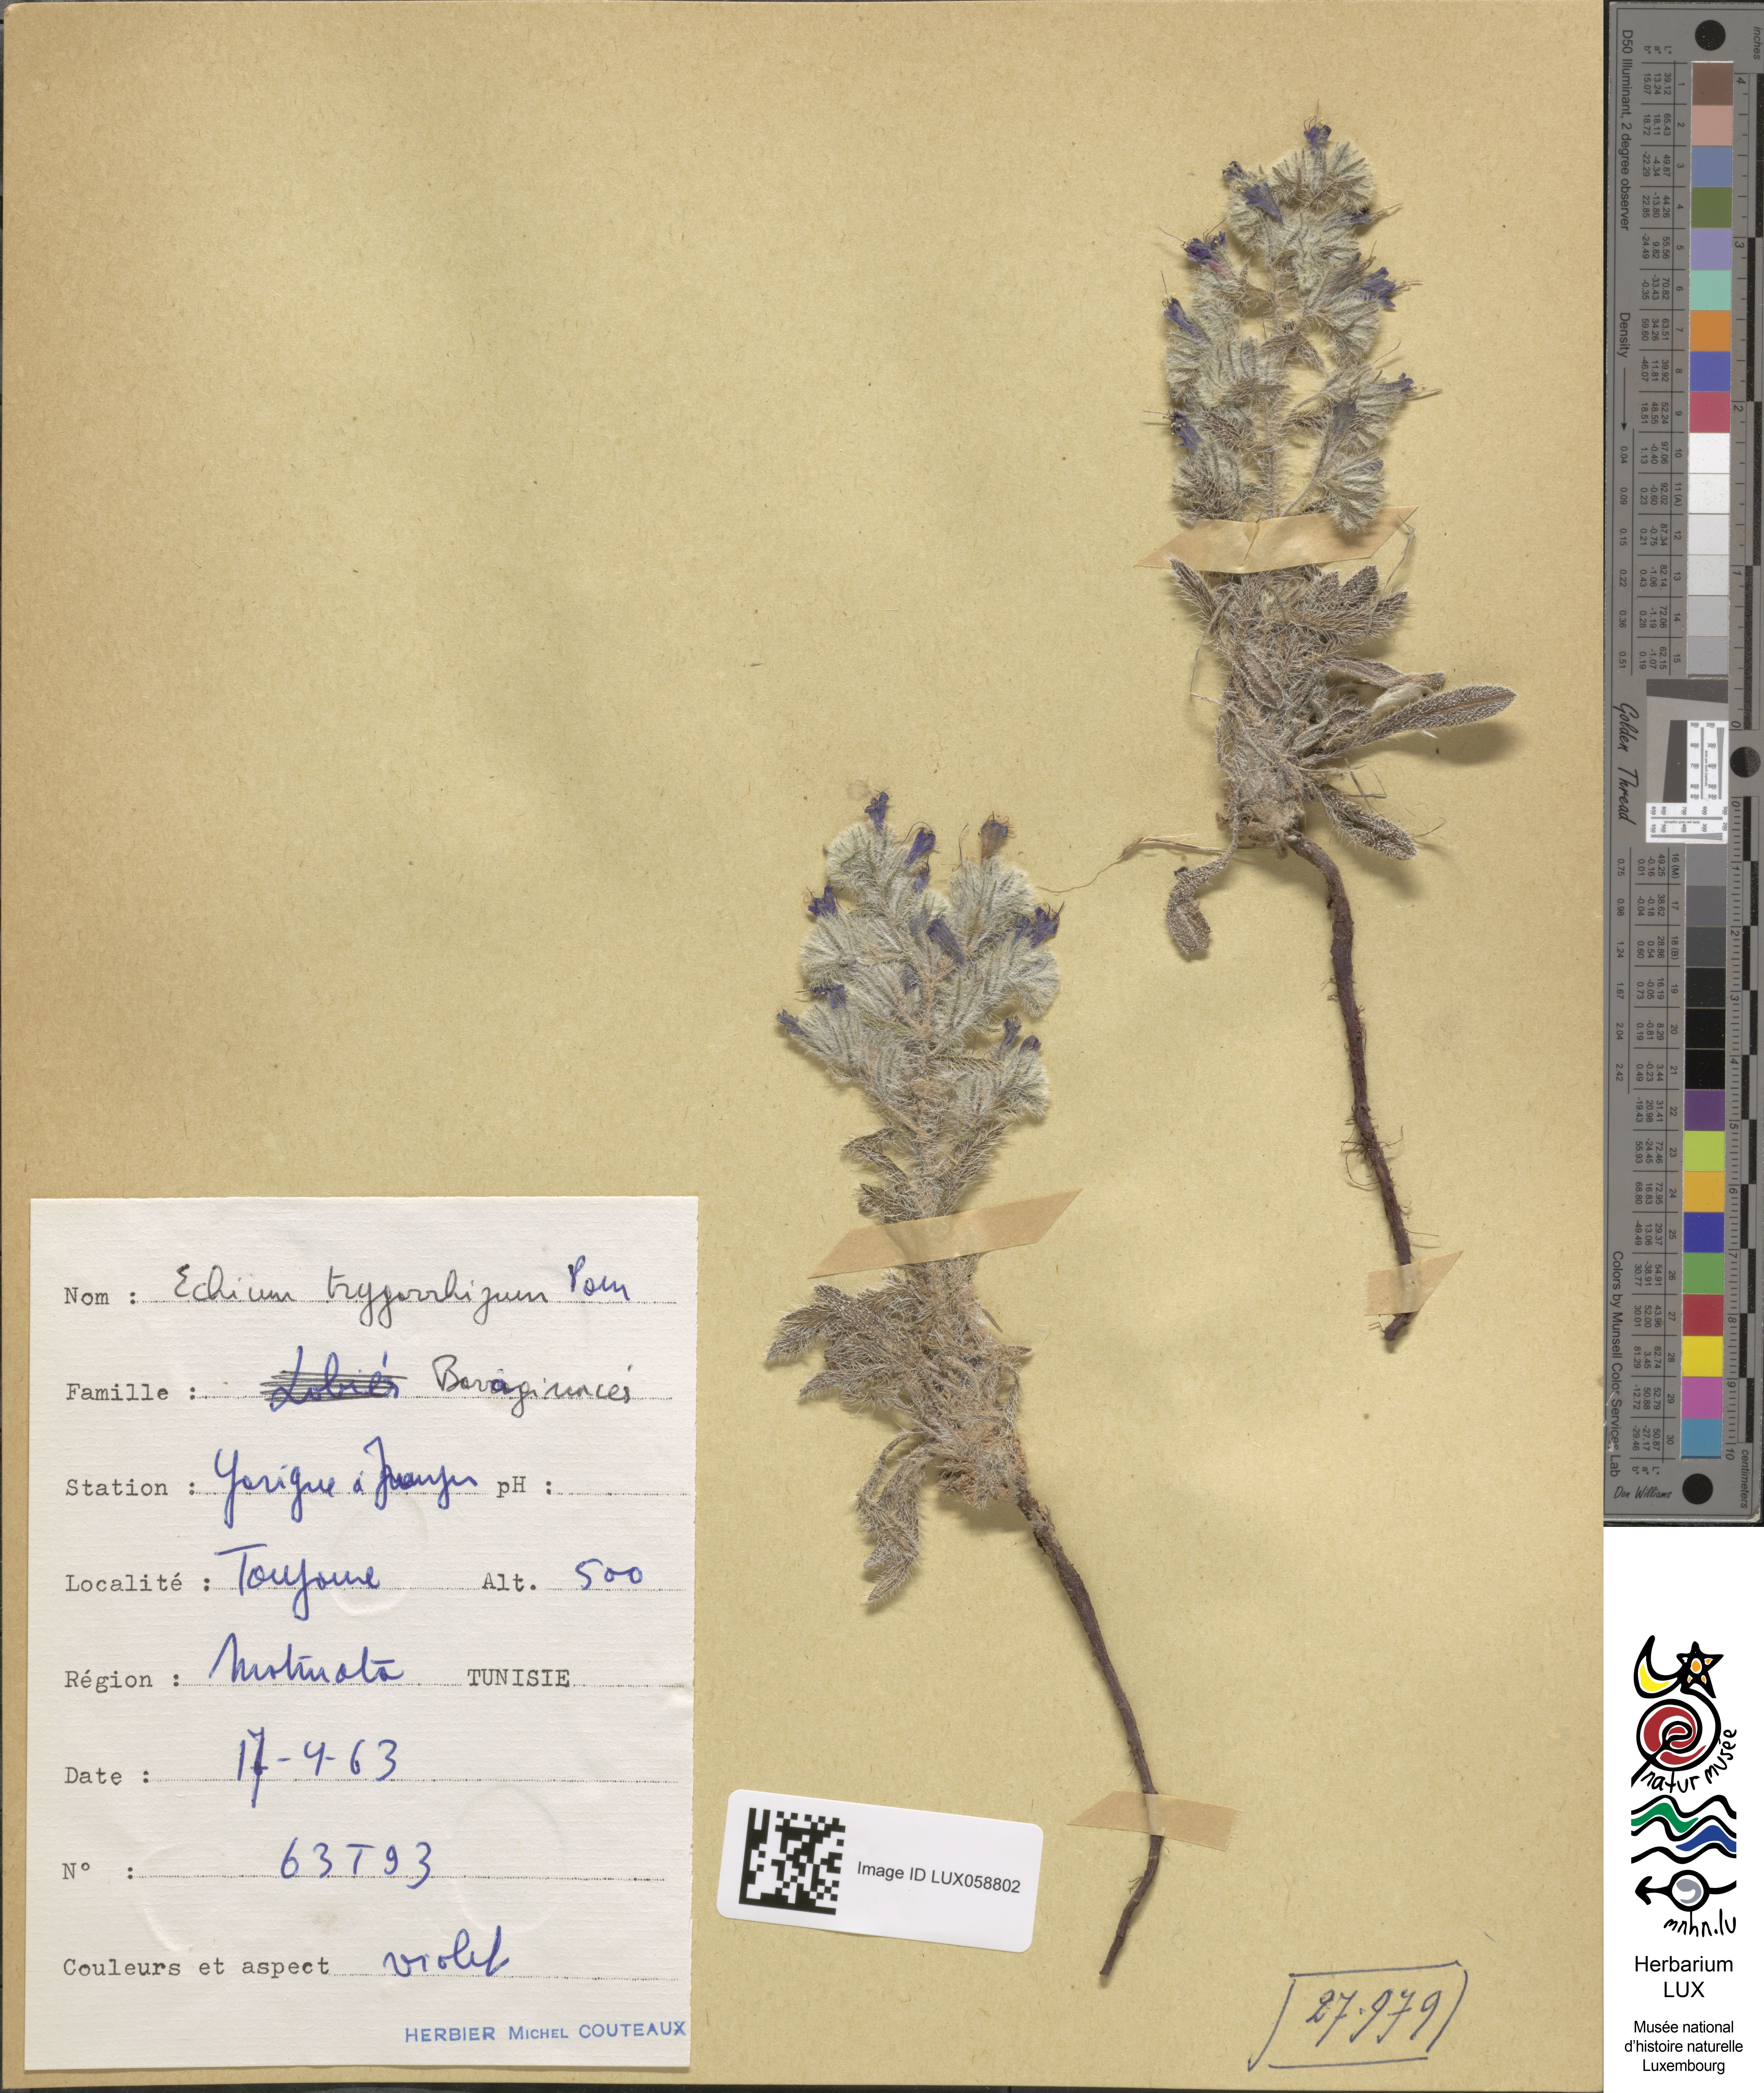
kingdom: Plantae
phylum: Tracheophyta
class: Magnoliopsida
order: Boraginales
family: Boraginaceae
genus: Echium
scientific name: Echium trygorrhizum
